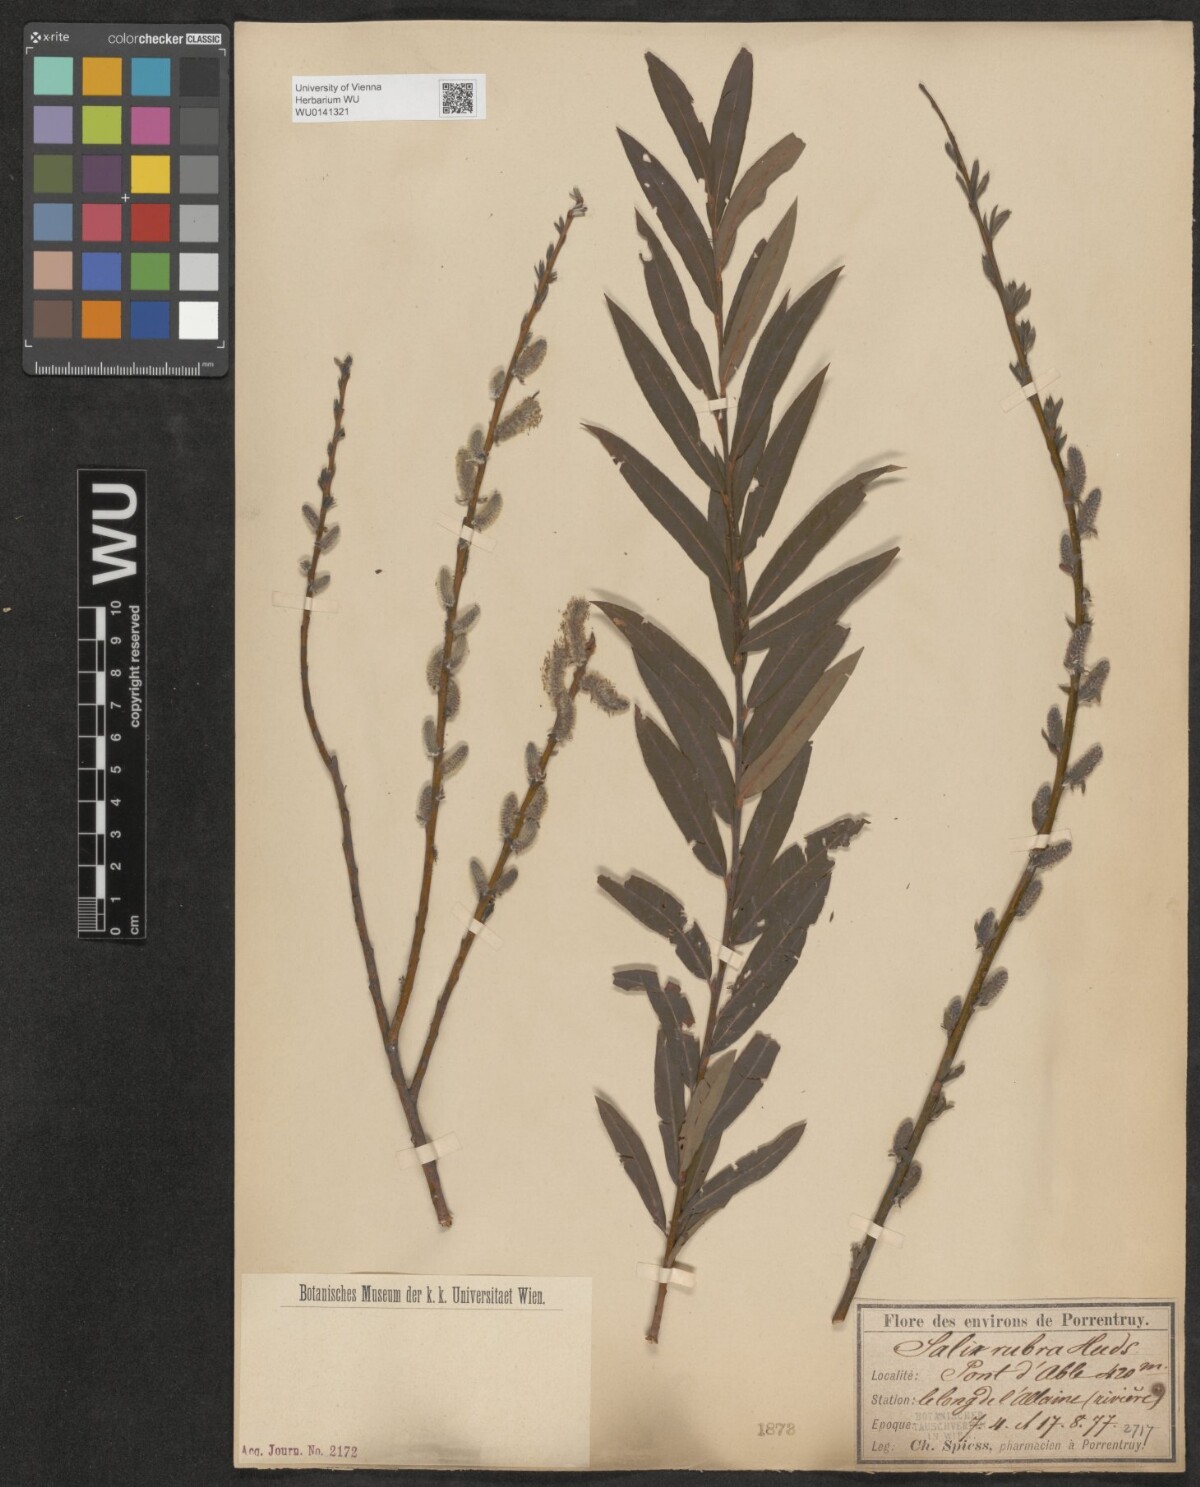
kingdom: Plantae
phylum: Tracheophyta
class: Magnoliopsida
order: Malpighiales
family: Salicaceae
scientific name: Salicaceae
